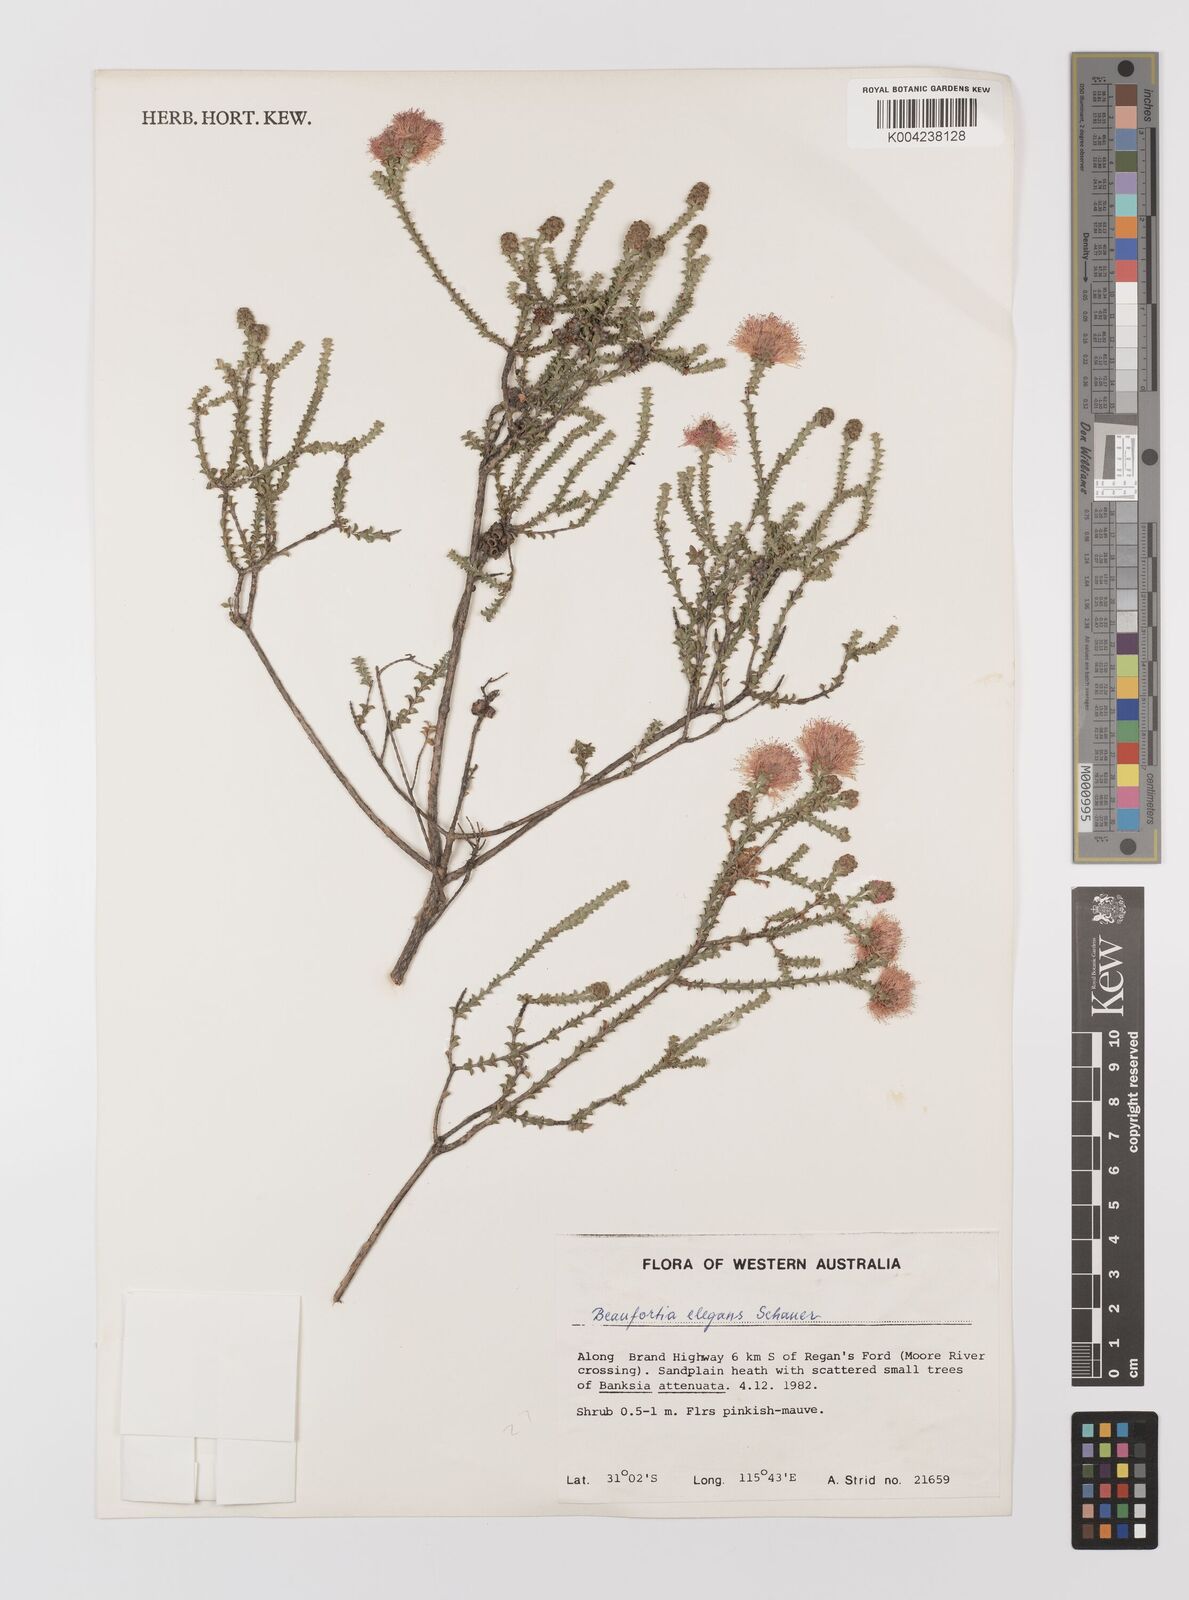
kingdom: Plantae
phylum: Tracheophyta
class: Magnoliopsida
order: Myrtales
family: Myrtaceae
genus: Melaleuca
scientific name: Melaleuca scitula
